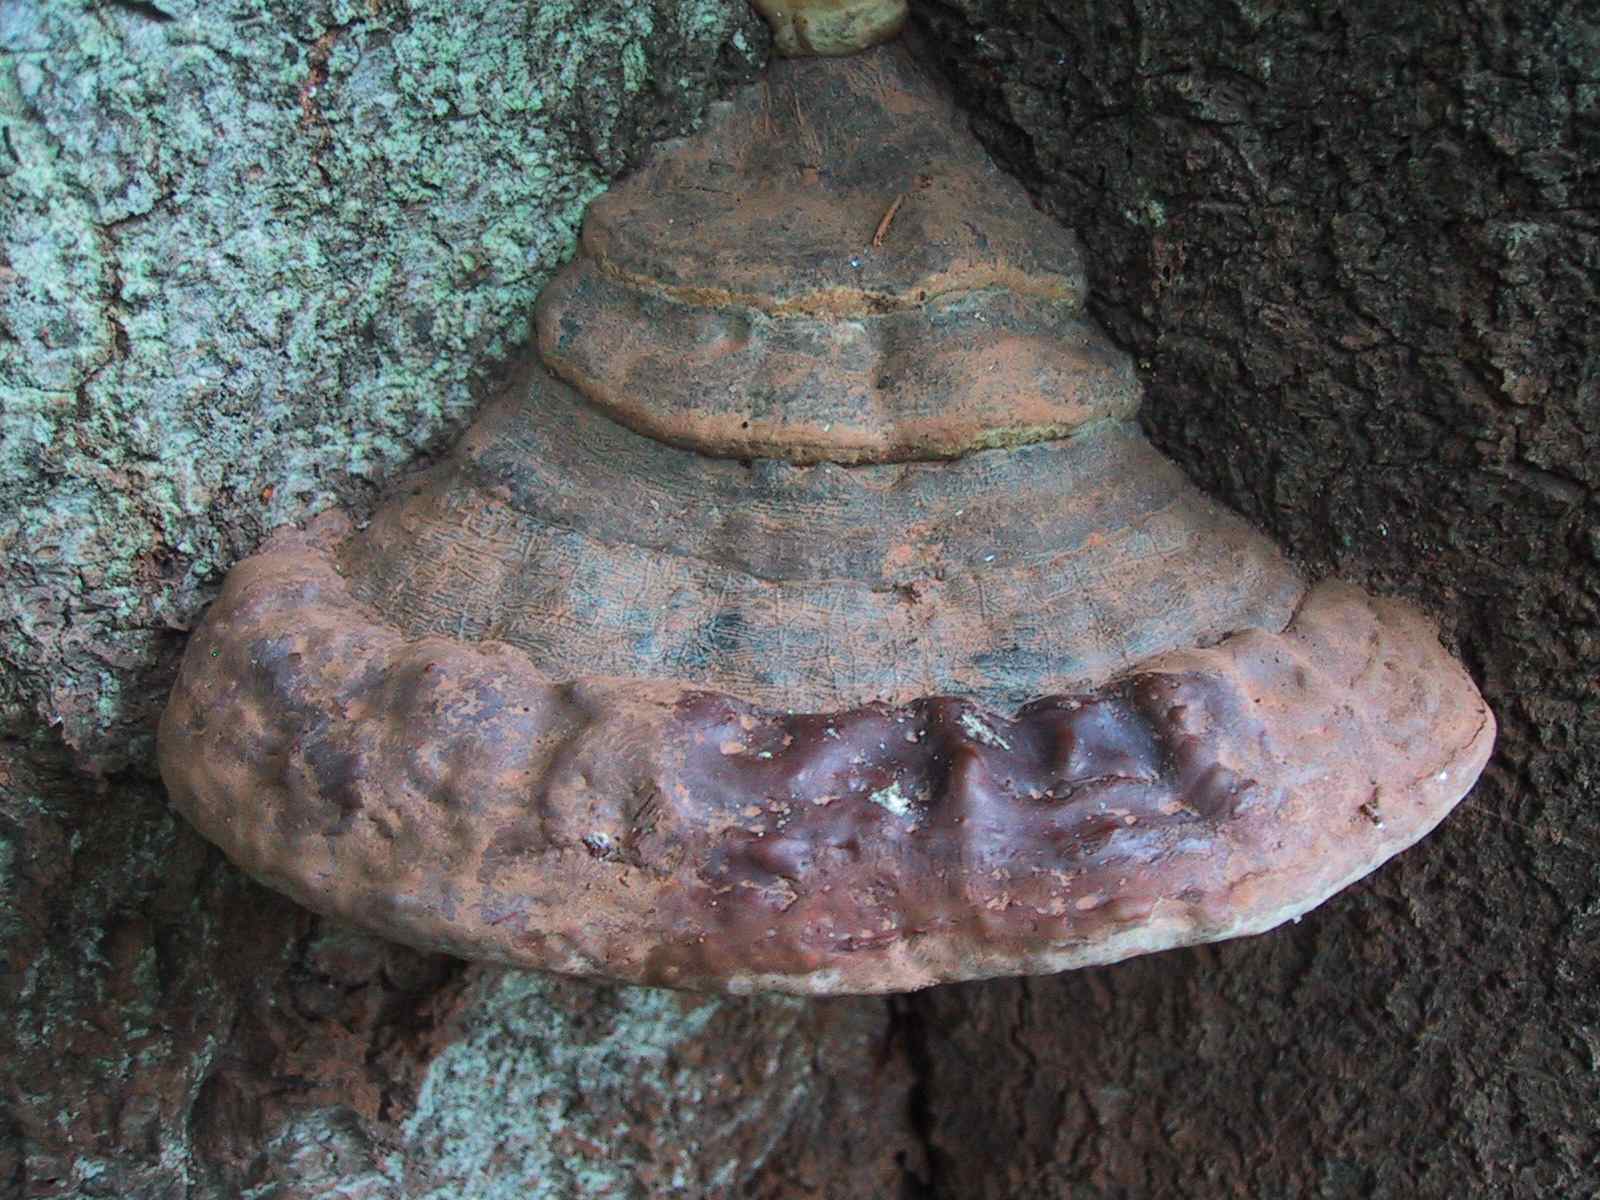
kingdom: Fungi
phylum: Basidiomycota
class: Agaricomycetes
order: Polyporales
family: Polyporaceae
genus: Ganoderma
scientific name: Ganoderma pfeifferi
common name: kobberrød lakporesvamp
